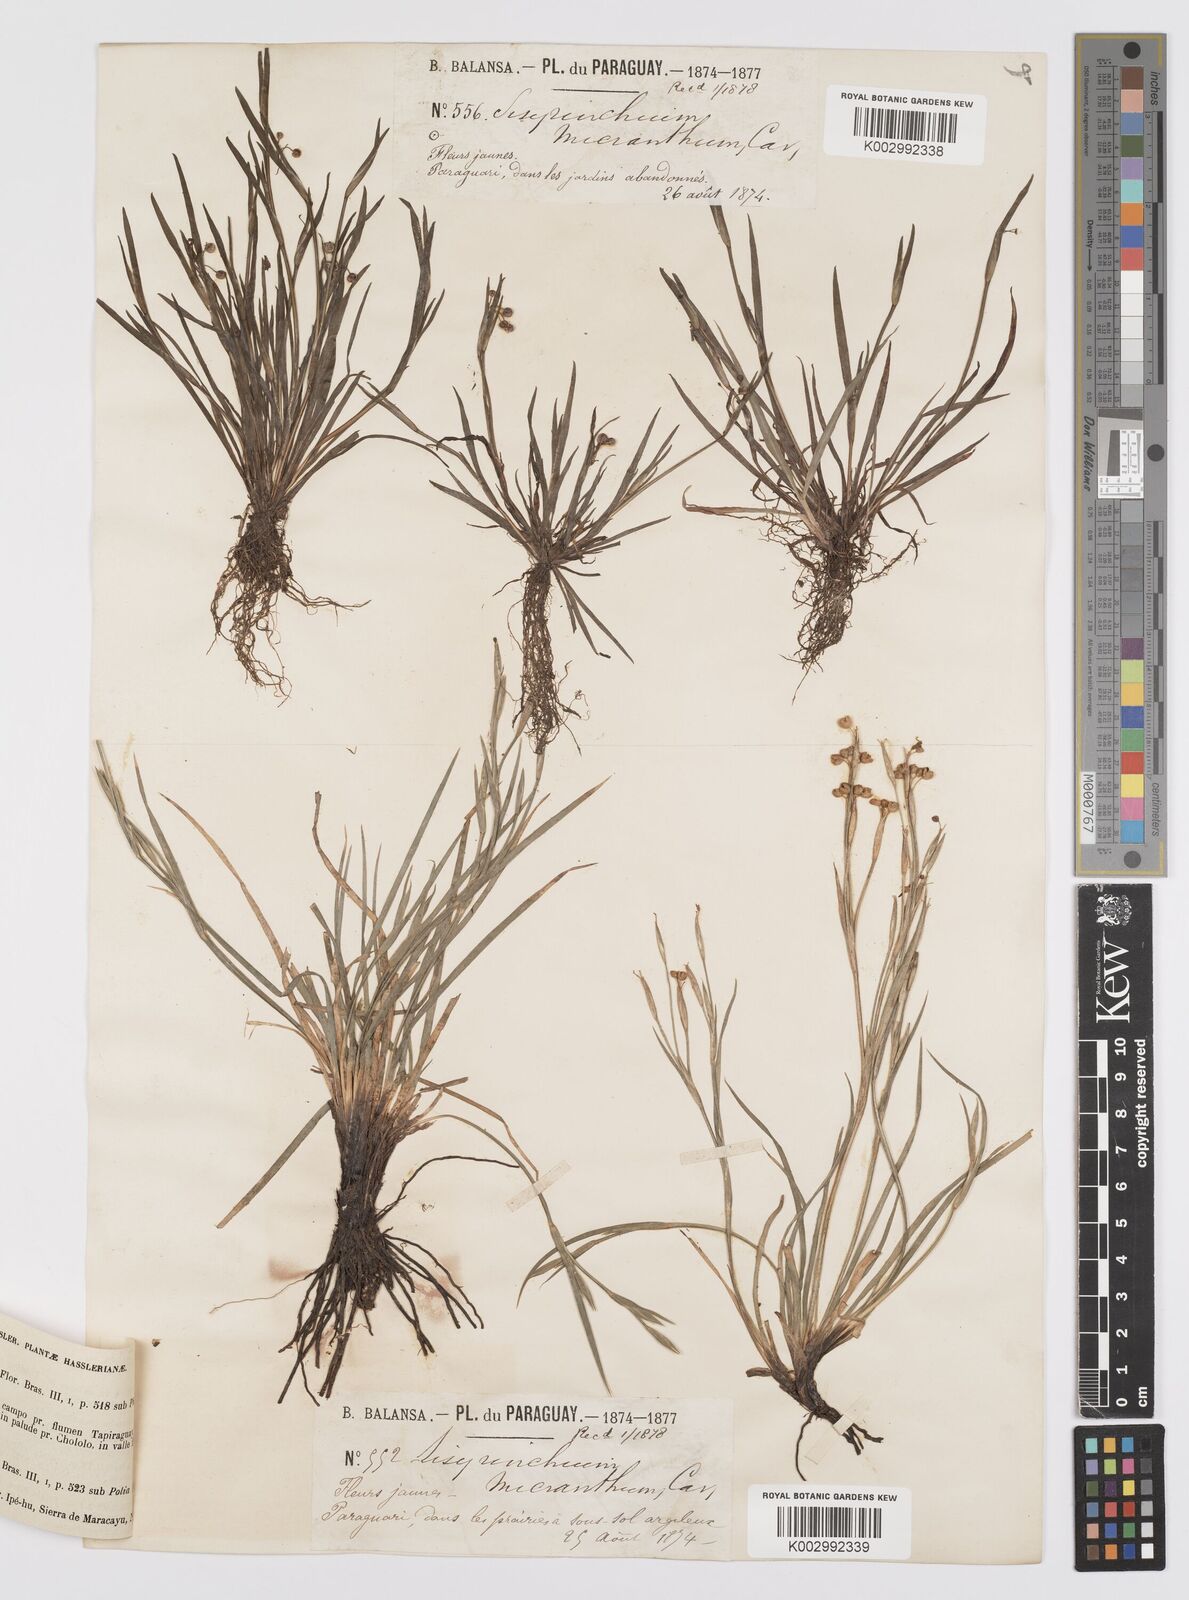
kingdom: Plantae
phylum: Tracheophyta
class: Liliopsida
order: Asparagales
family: Iridaceae
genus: Sisyrinchium
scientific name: Sisyrinchium micranthum
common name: Bermuda pigroot
